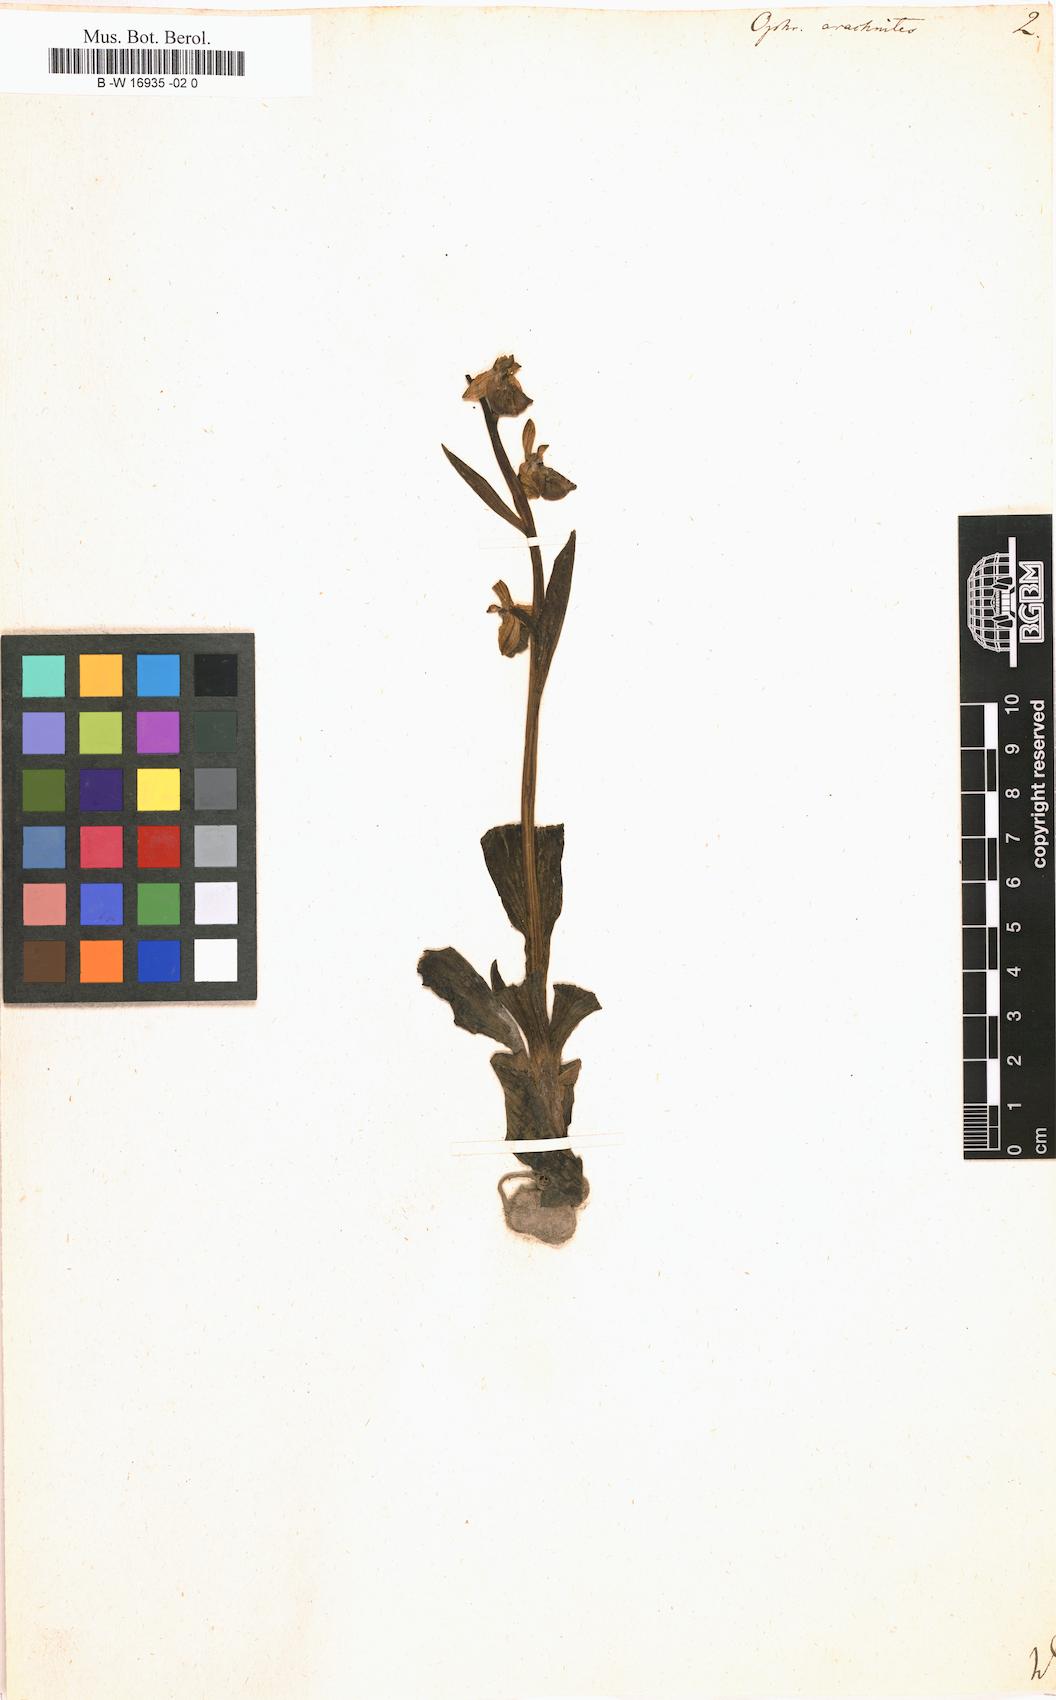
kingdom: Plantae
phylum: Tracheophyta
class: Liliopsida
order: Asparagales
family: Orchidaceae
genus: Ophrys
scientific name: Ophrys apifera
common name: Bee orchid
